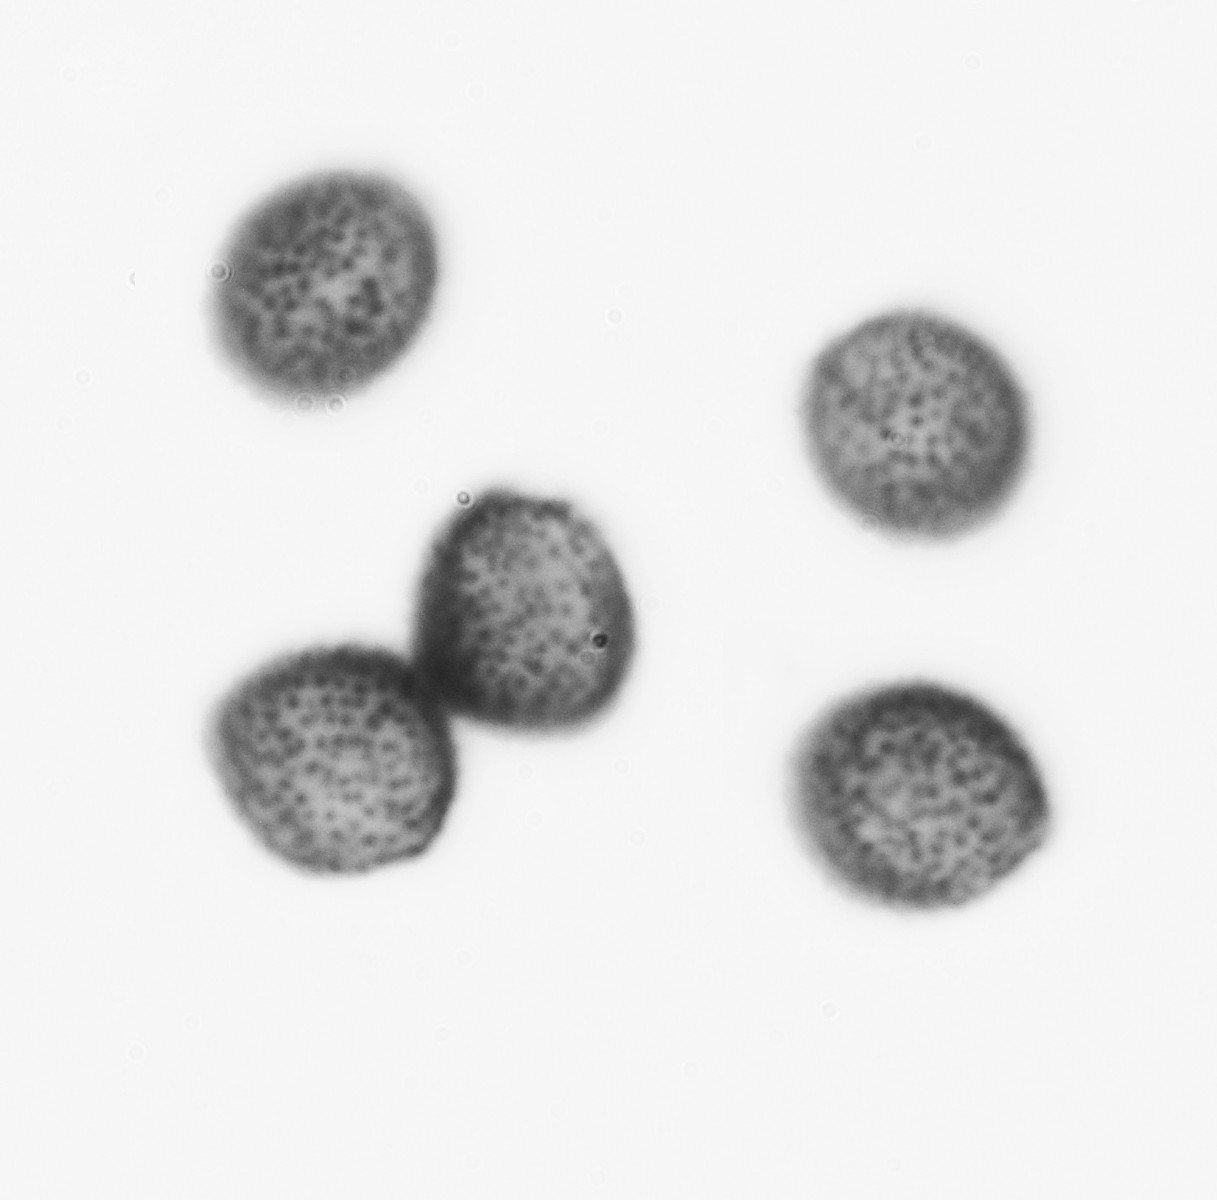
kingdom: Protozoa
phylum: Mycetozoa
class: Myxomycetes
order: Physarales
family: Physaraceae
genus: Physarum
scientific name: Physarum bitectum
